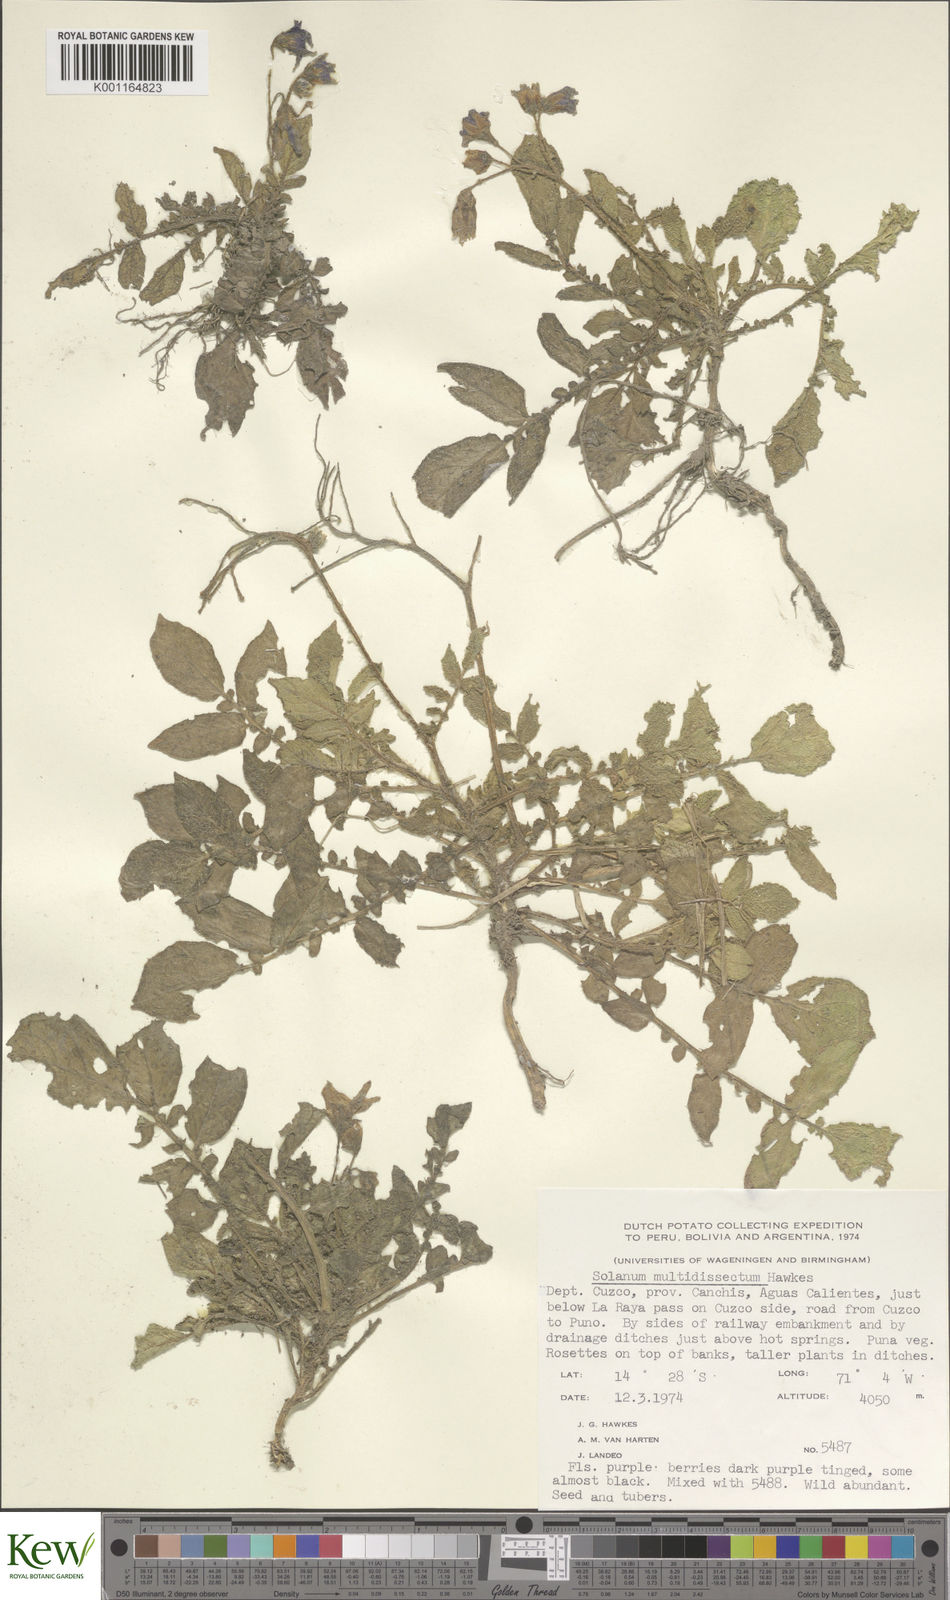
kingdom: Plantae
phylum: Tracheophyta
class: Magnoliopsida
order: Solanales
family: Solanaceae
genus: Solanum
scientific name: Solanum candolleanum
